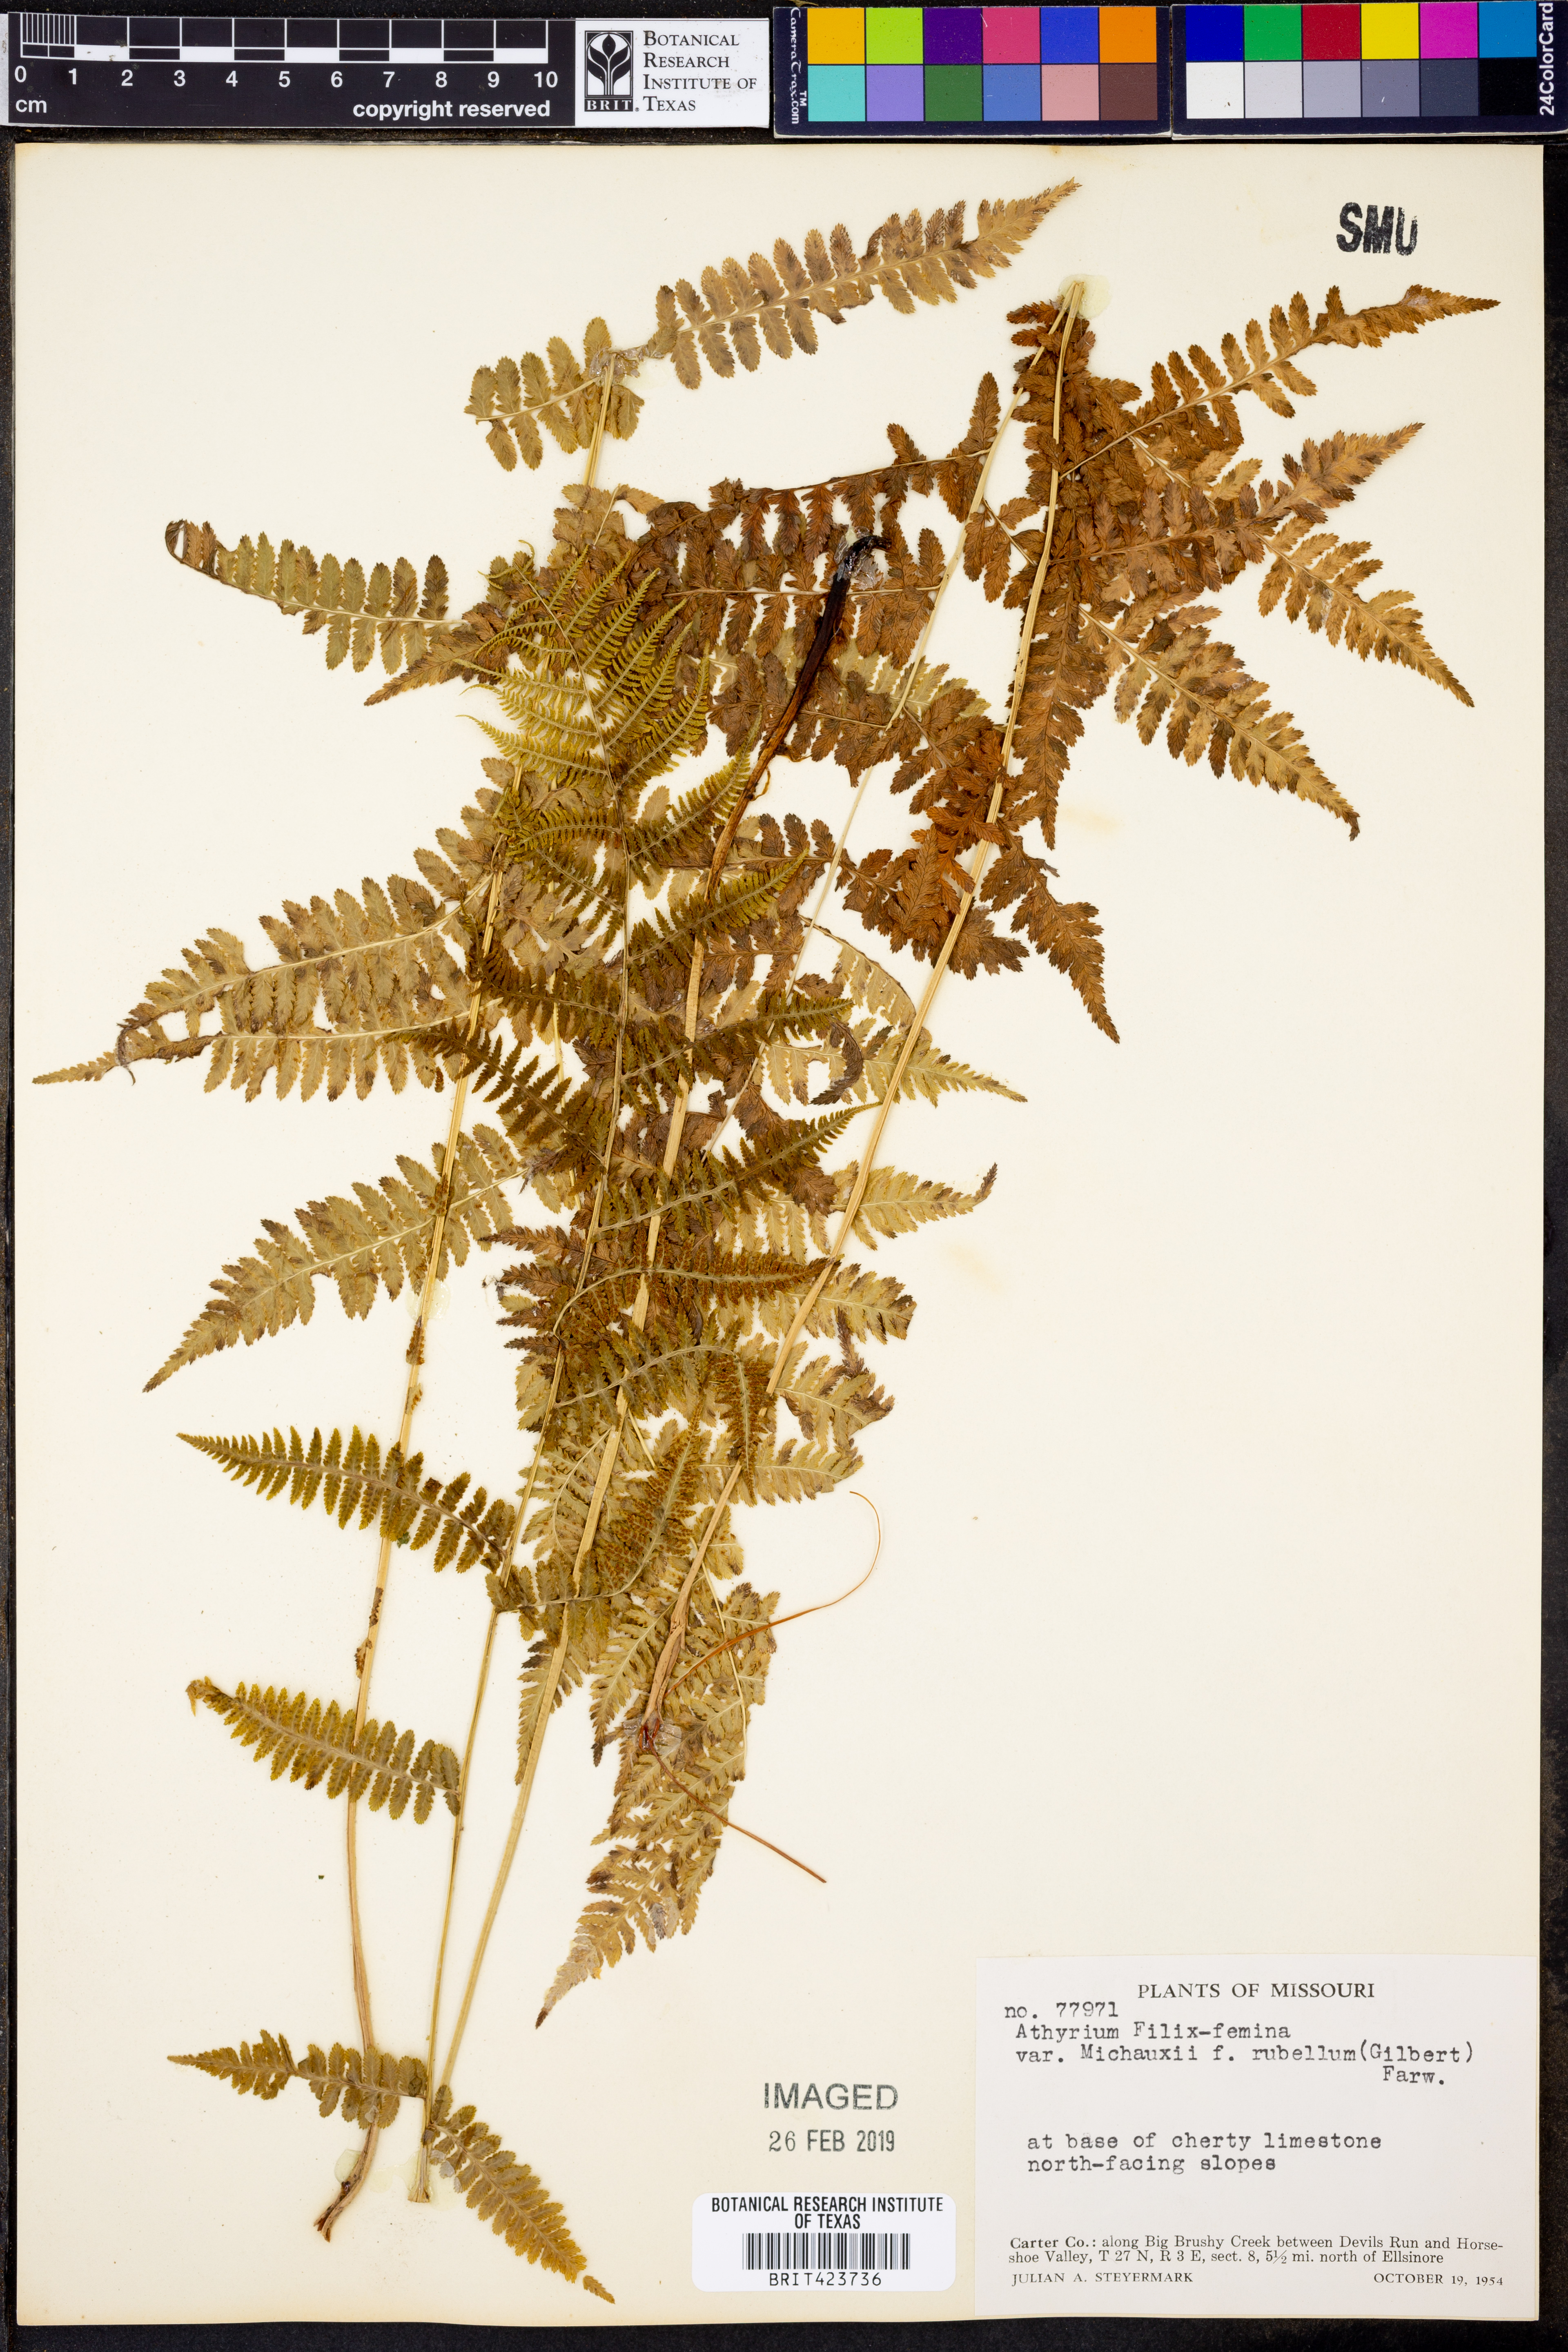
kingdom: Plantae
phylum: Tracheophyta
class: Polypodiopsida
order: Polypodiales
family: Athyriaceae
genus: Athyrium
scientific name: Athyrium angustum
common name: Northern lady fern
